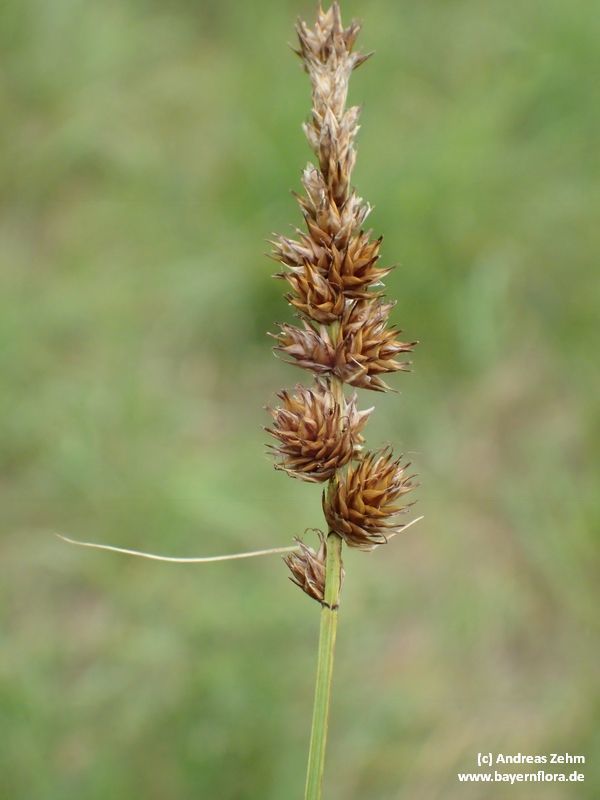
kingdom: Plantae
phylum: Tracheophyta
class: Liliopsida
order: Poales
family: Cyperaceae
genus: Carex
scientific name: Carex disticha
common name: Brown sedge
